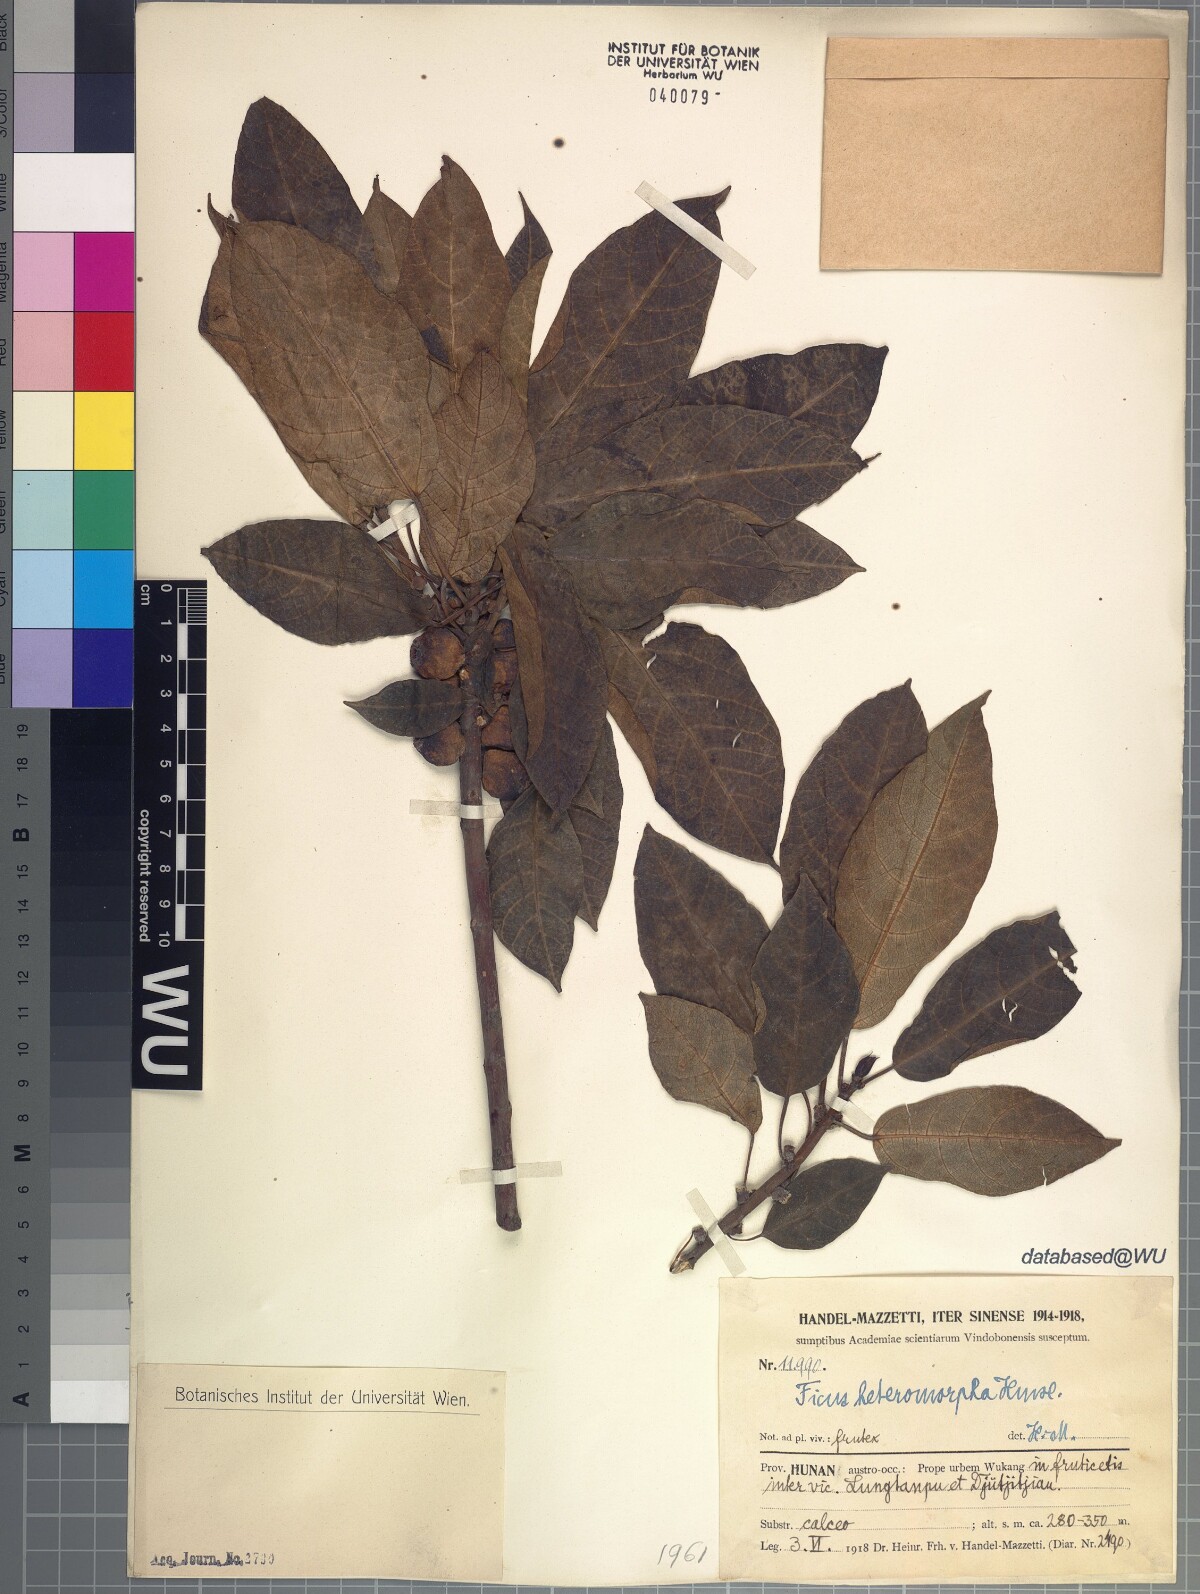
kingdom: Plantae
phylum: Tracheophyta
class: Magnoliopsida
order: Rosales
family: Moraceae
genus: Ficus
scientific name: Ficus heteromorpha
